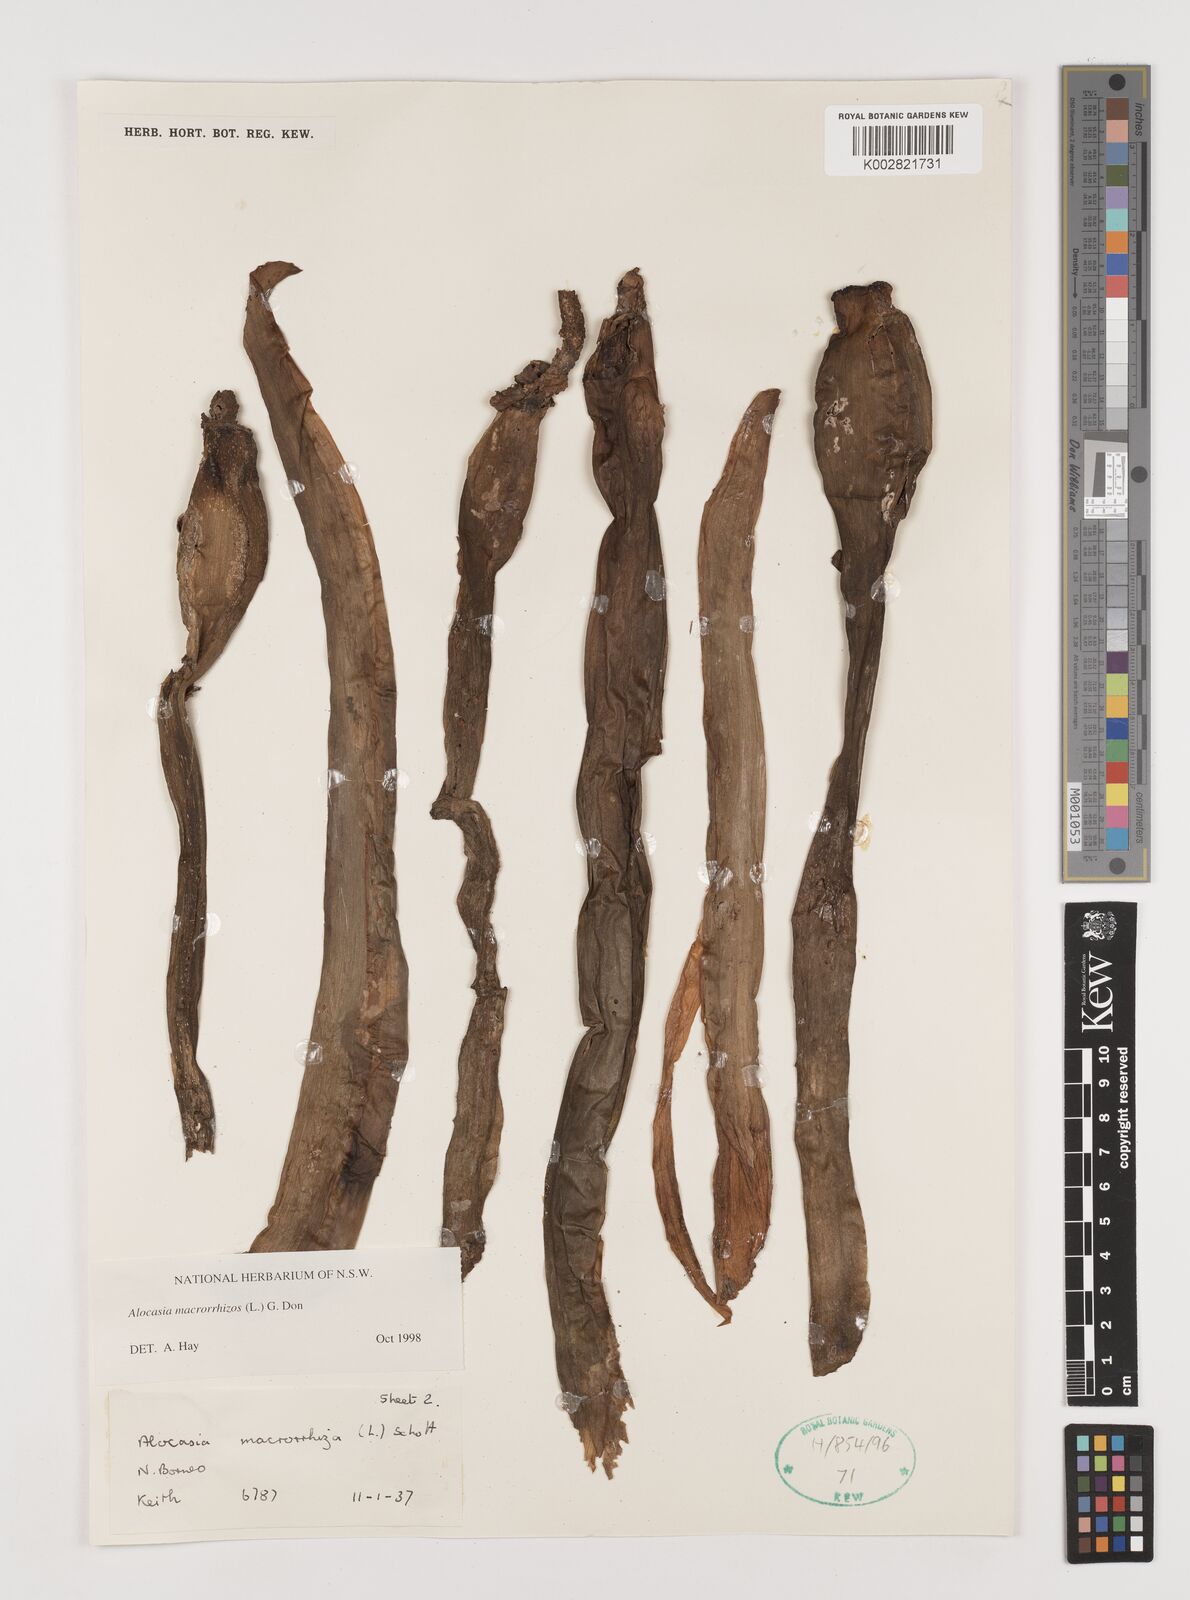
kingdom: Plantae
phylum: Tracheophyta
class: Liliopsida
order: Alismatales
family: Araceae
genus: Alocasia
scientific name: Alocasia macrorrhizos
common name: Giant taro
